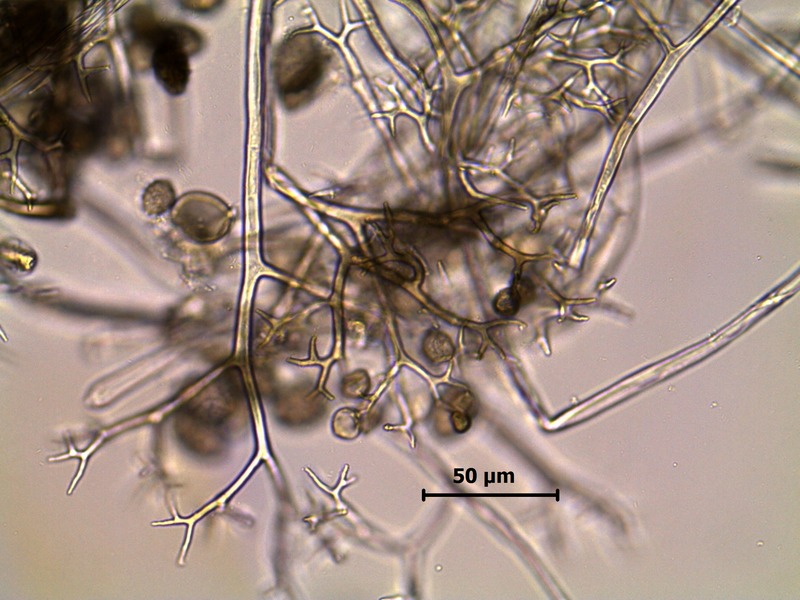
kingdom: Chromista
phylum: Oomycota
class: Peronosporea
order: Peronosporales
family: Peronosporaceae
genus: Pseudoperonospora
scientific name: Pseudoperonospora cubensis
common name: Cucurbit downy mildew
